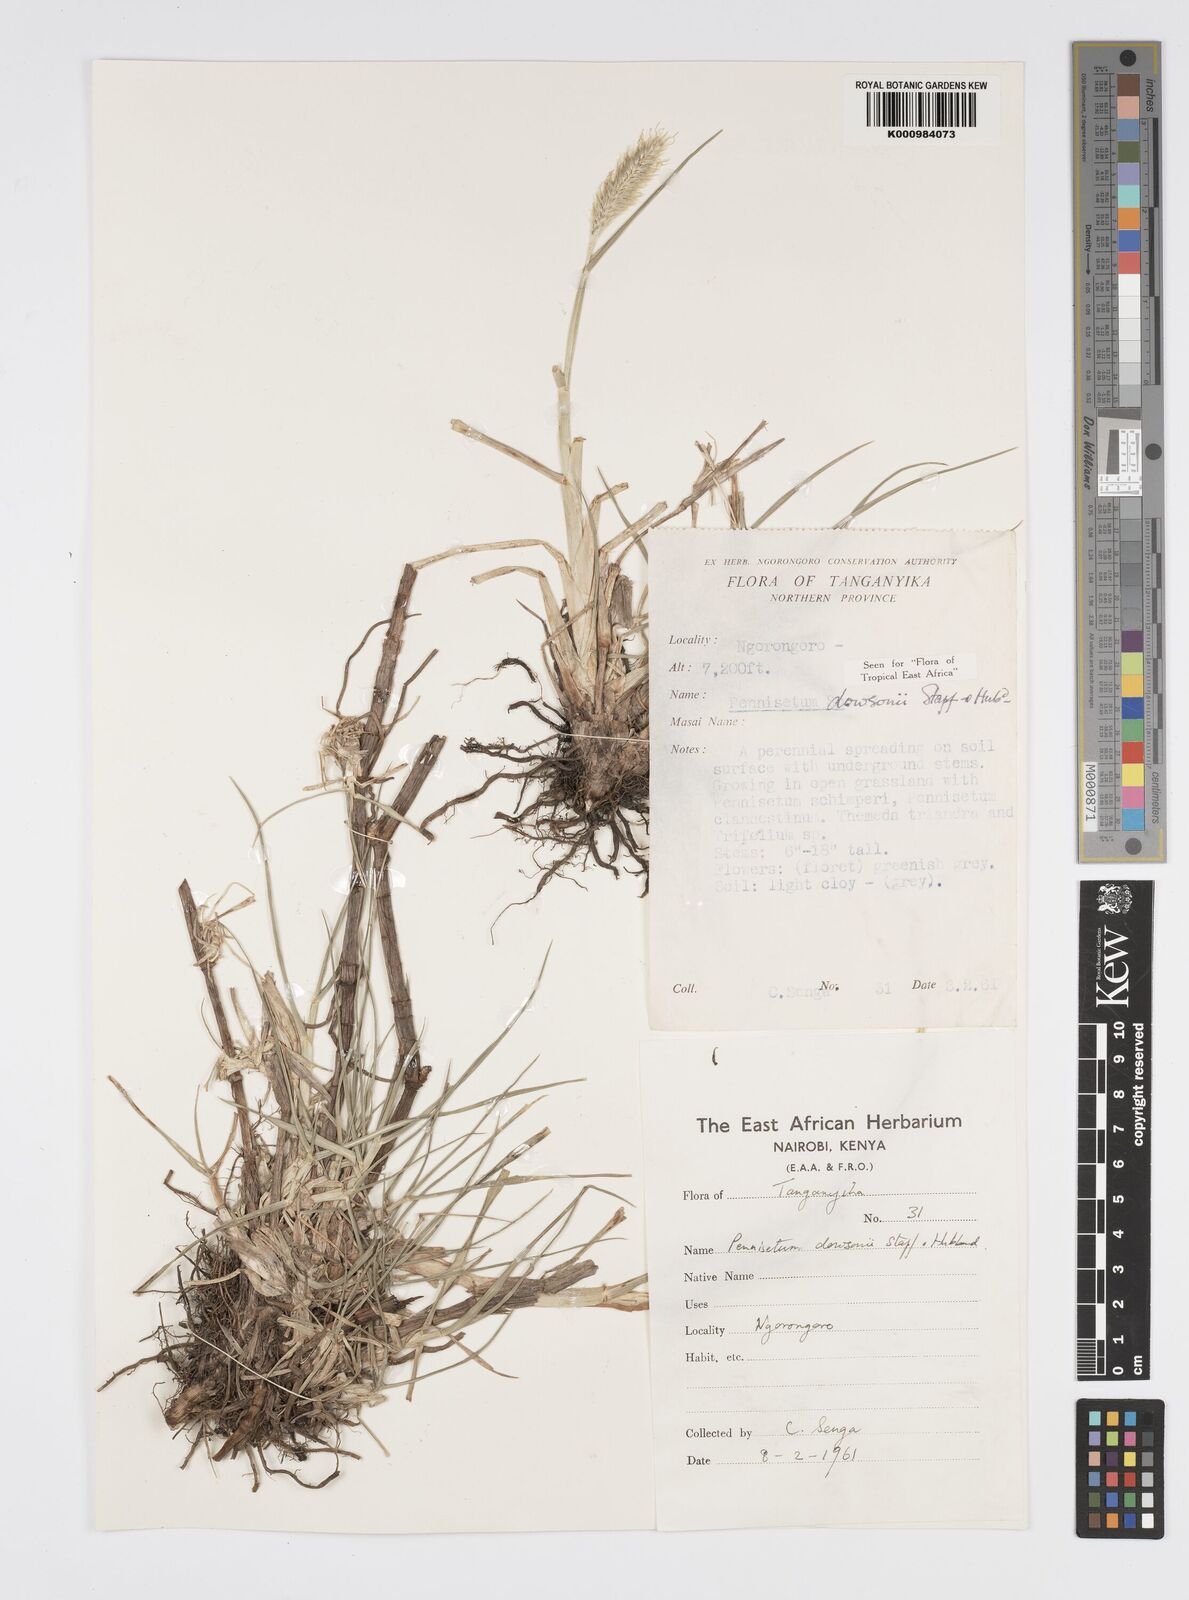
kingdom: Plantae
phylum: Tracheophyta
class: Liliopsida
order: Poales
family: Poaceae
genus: Cenchrus
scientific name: Cenchrus riparius
